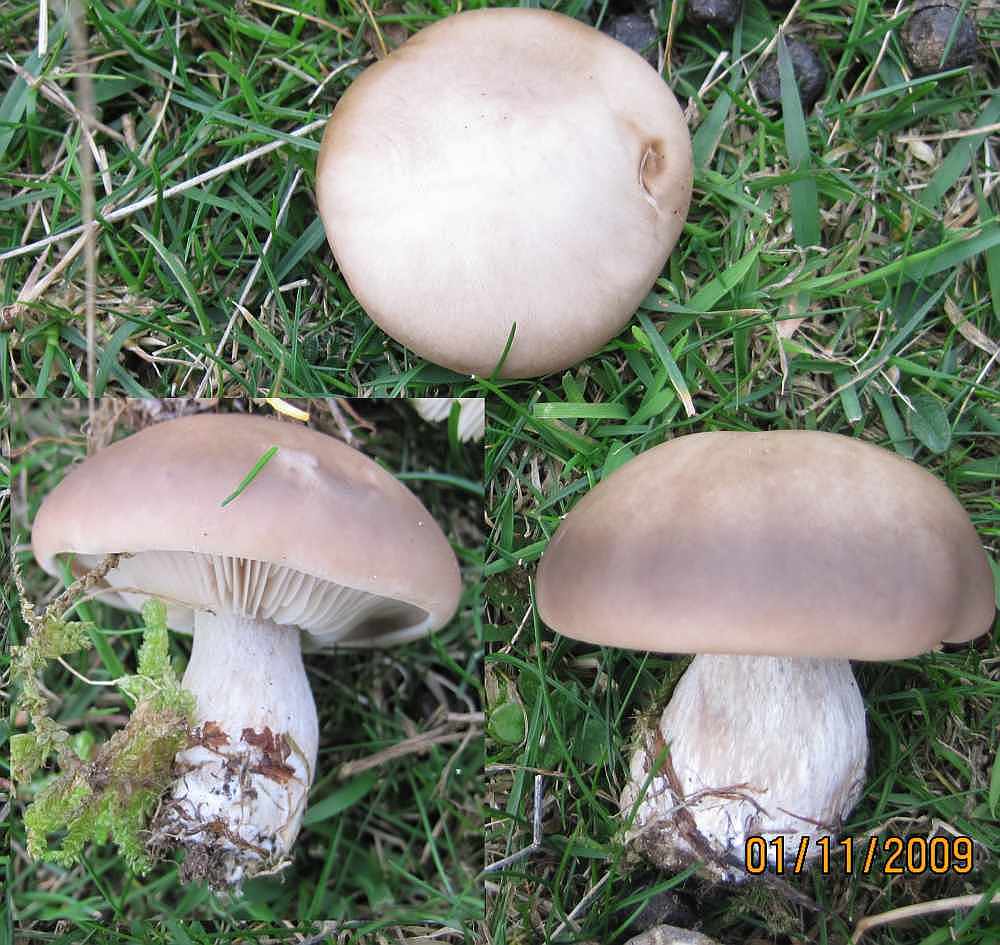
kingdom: Fungi
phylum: Basidiomycota
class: Agaricomycetes
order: Agaricales
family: Tricholomataceae
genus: Lepista
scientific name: Lepista personata
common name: bleg hekseringshat
